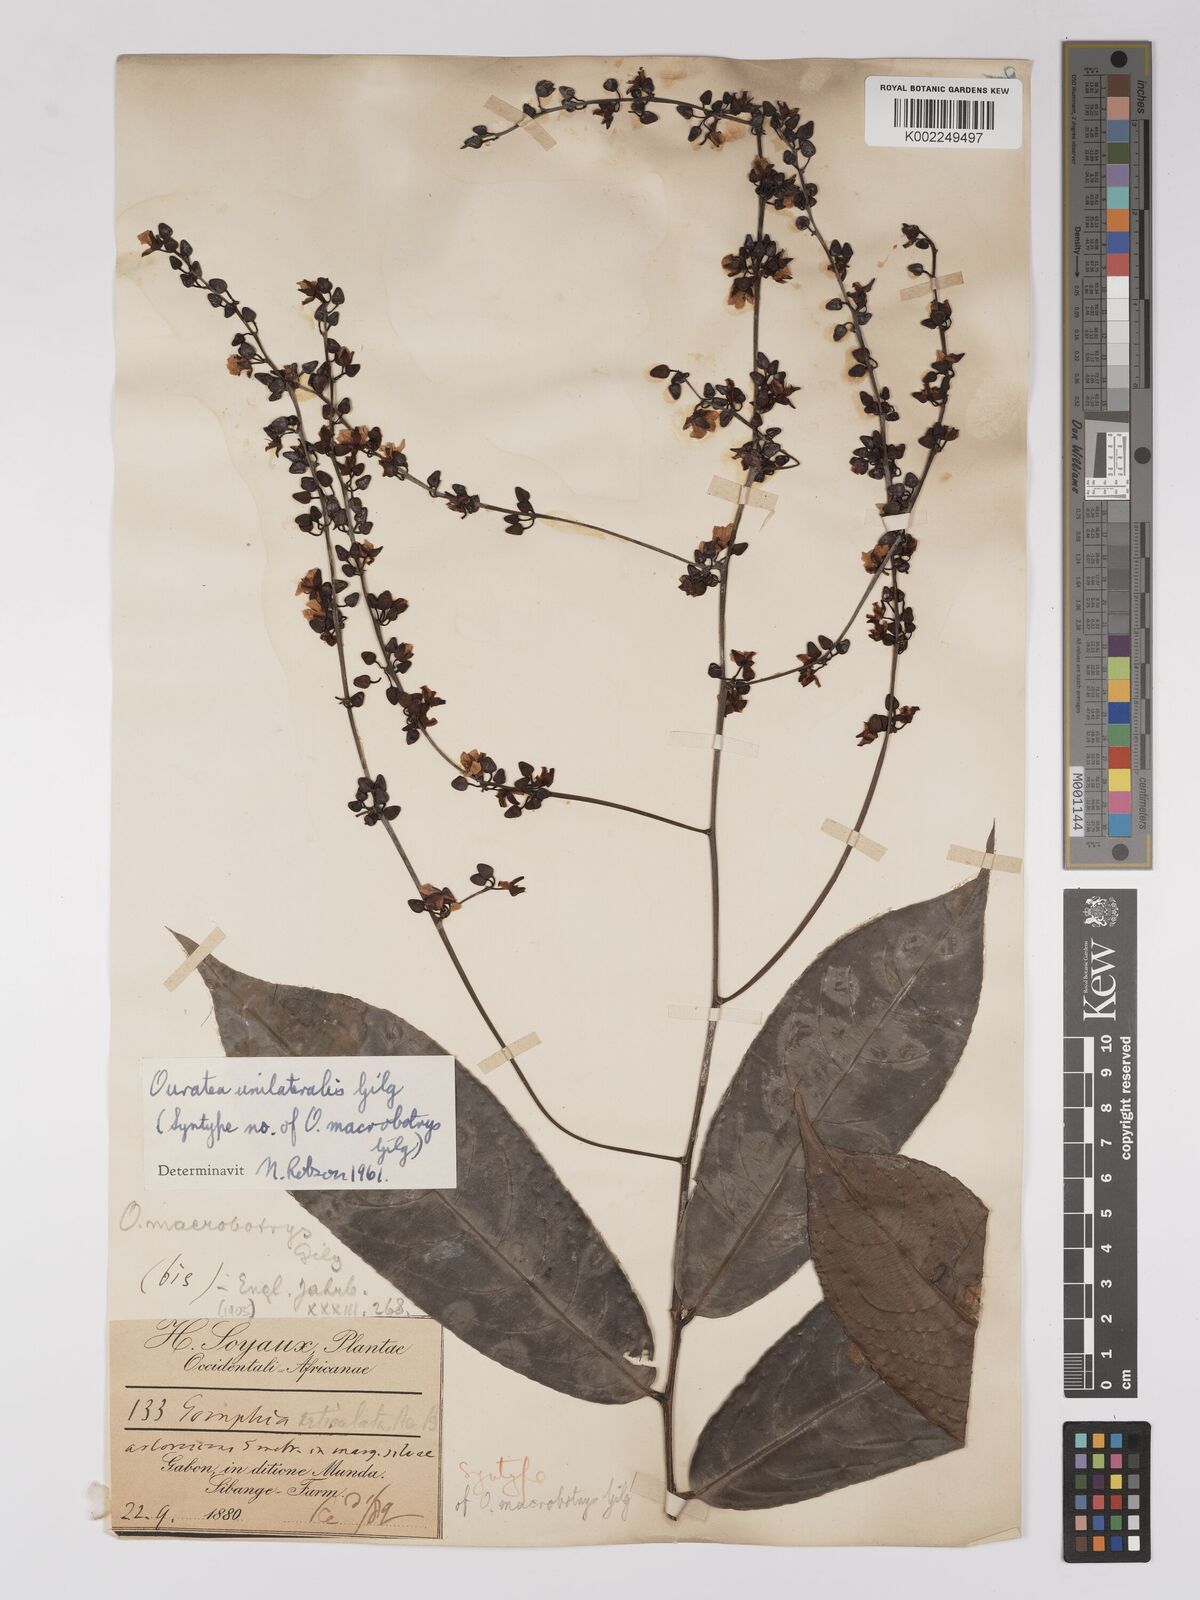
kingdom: Plantae
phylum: Tracheophyta
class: Magnoliopsida
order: Malpighiales
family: Ochnaceae
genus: Campylospermum
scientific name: Campylospermum laxiflorum
